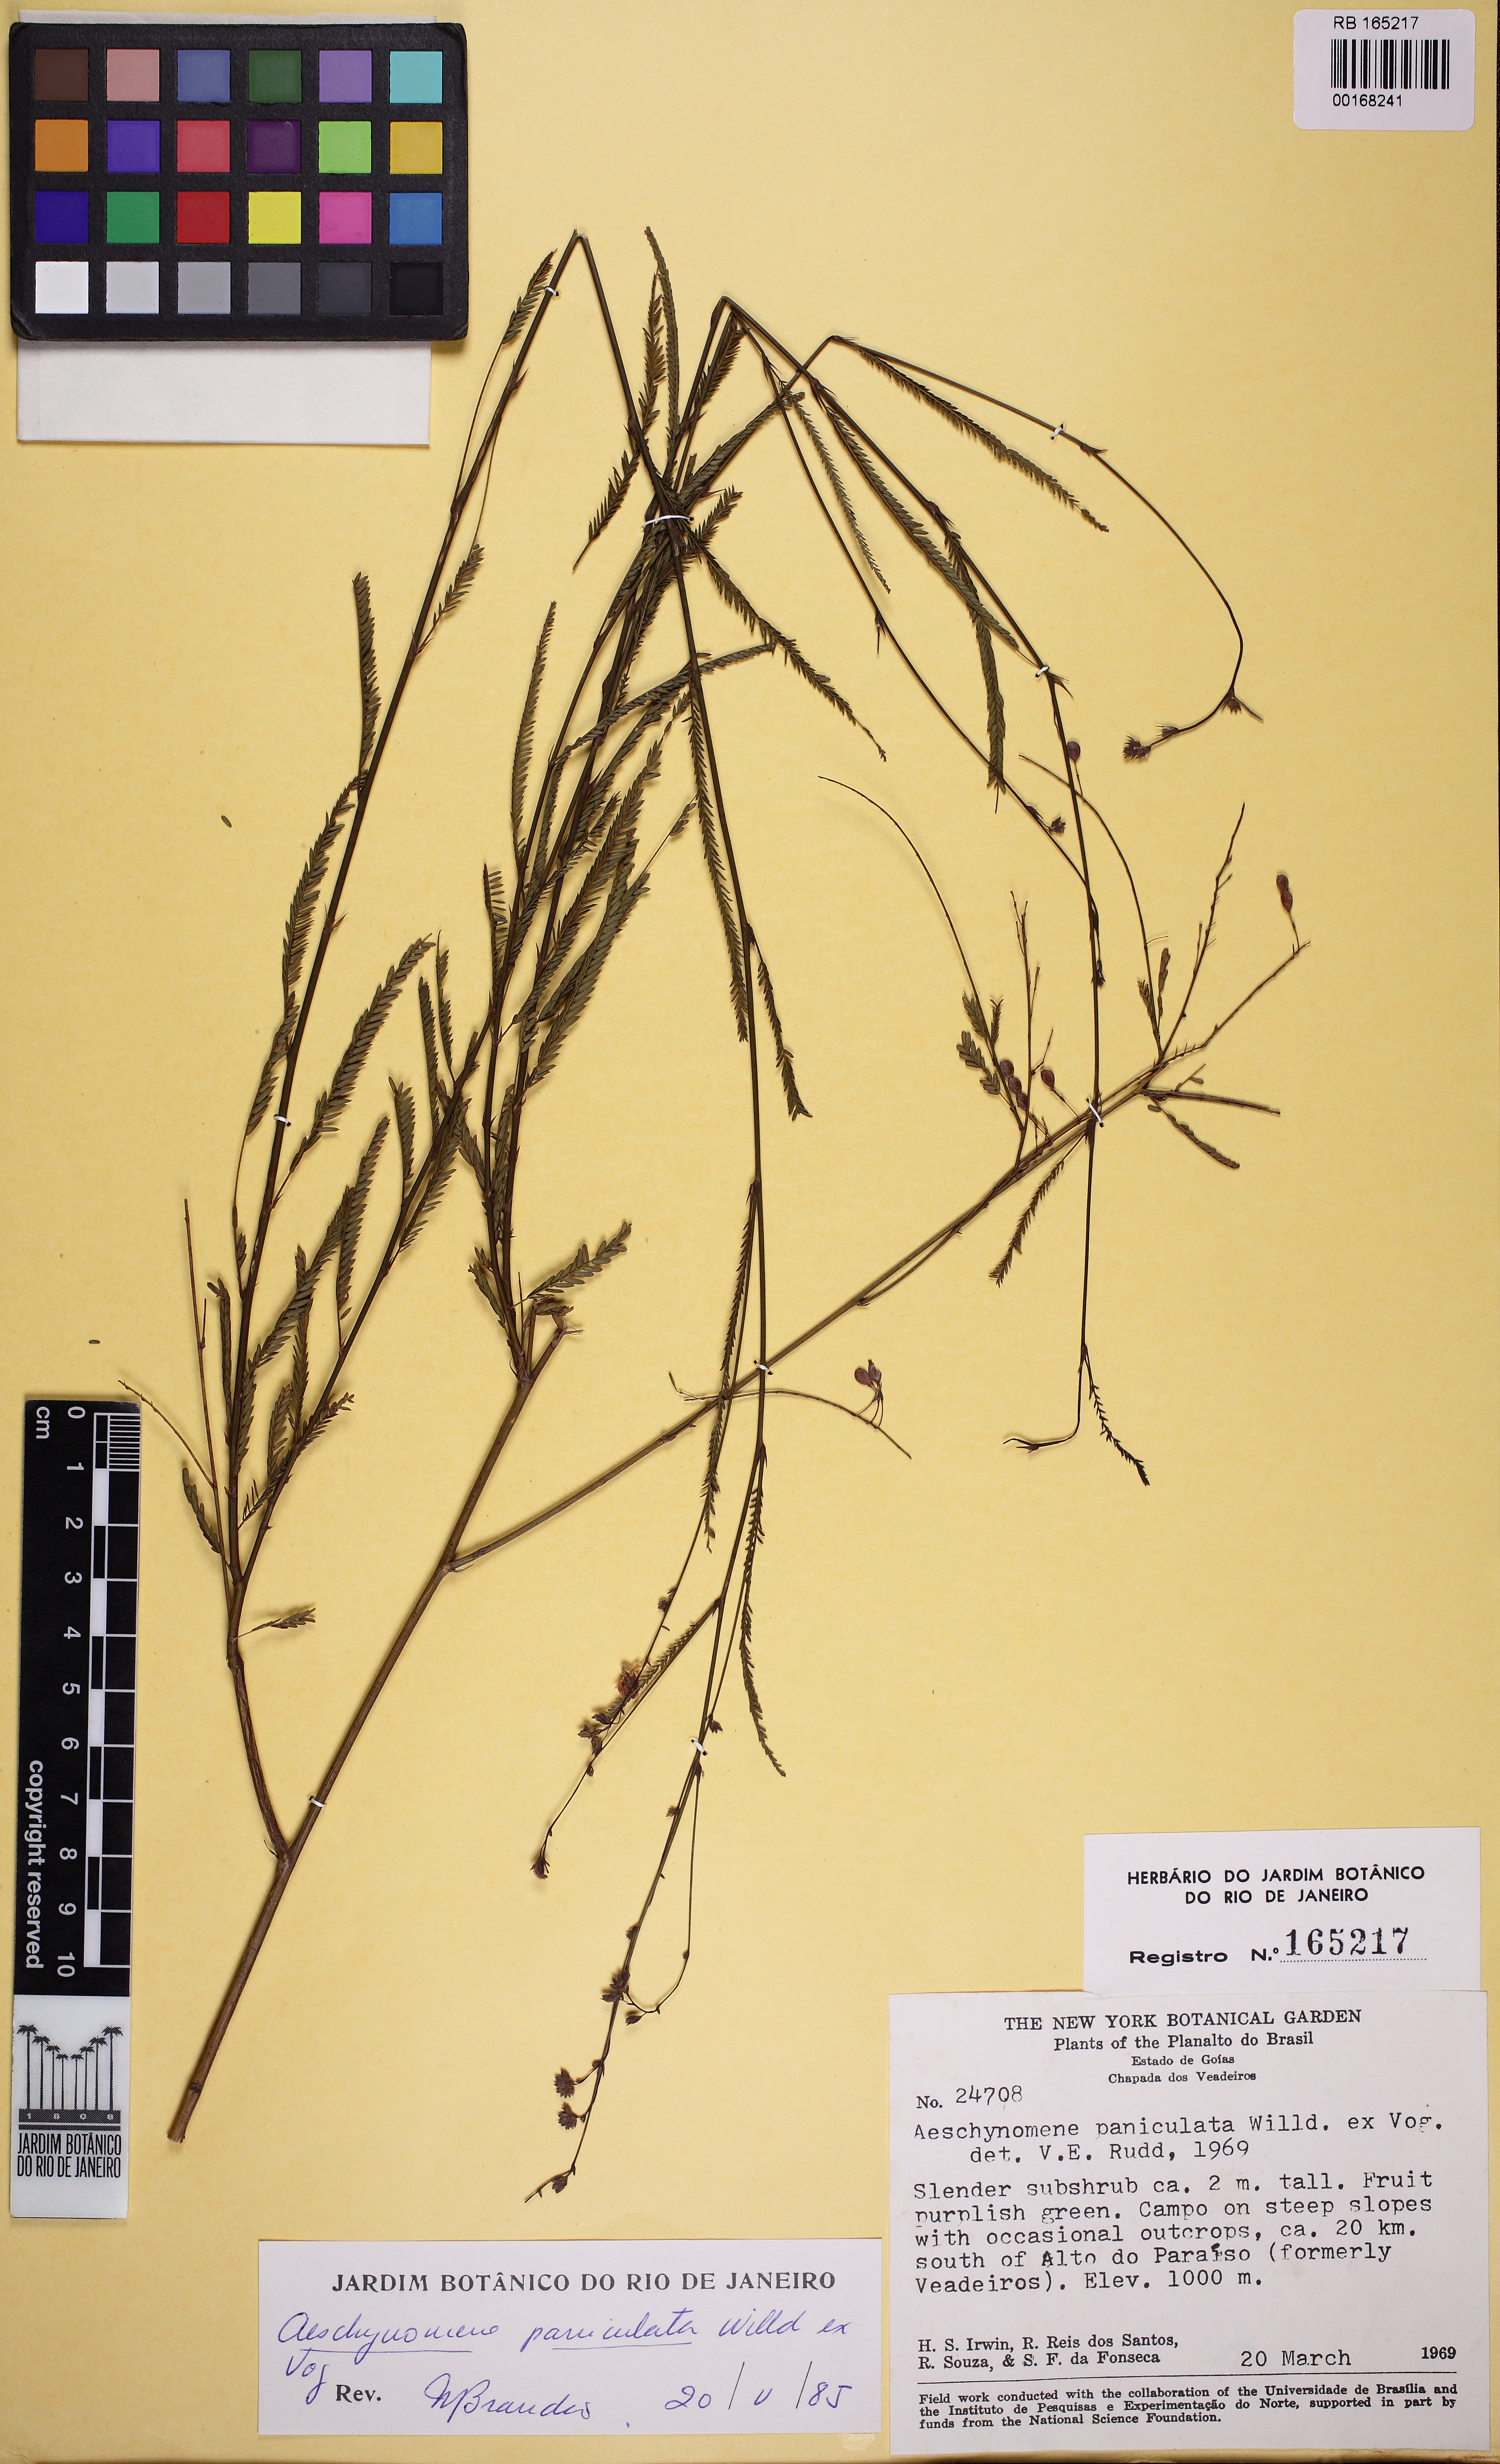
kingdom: Plantae
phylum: Tracheophyta
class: Magnoliopsida
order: Fabales
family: Fabaceae
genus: Ctenodon
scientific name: Ctenodon paniculatus
